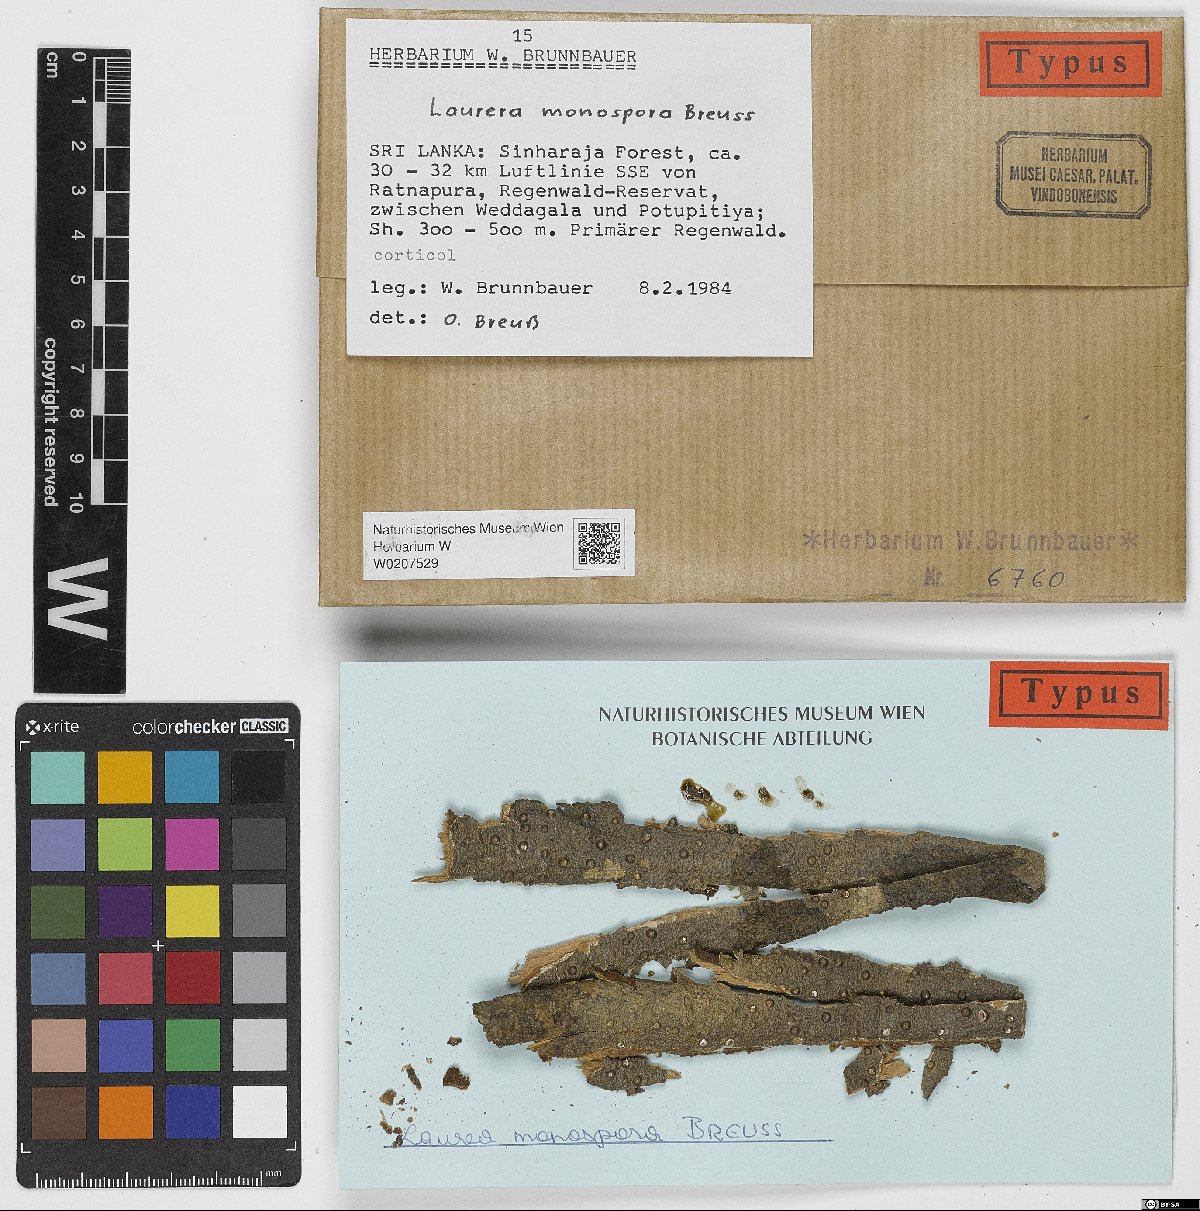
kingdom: Fungi
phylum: Ascomycota
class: Dothideomycetes
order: Trypetheliales
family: Trypetheliaceae
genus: Laurera
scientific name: Laurera
